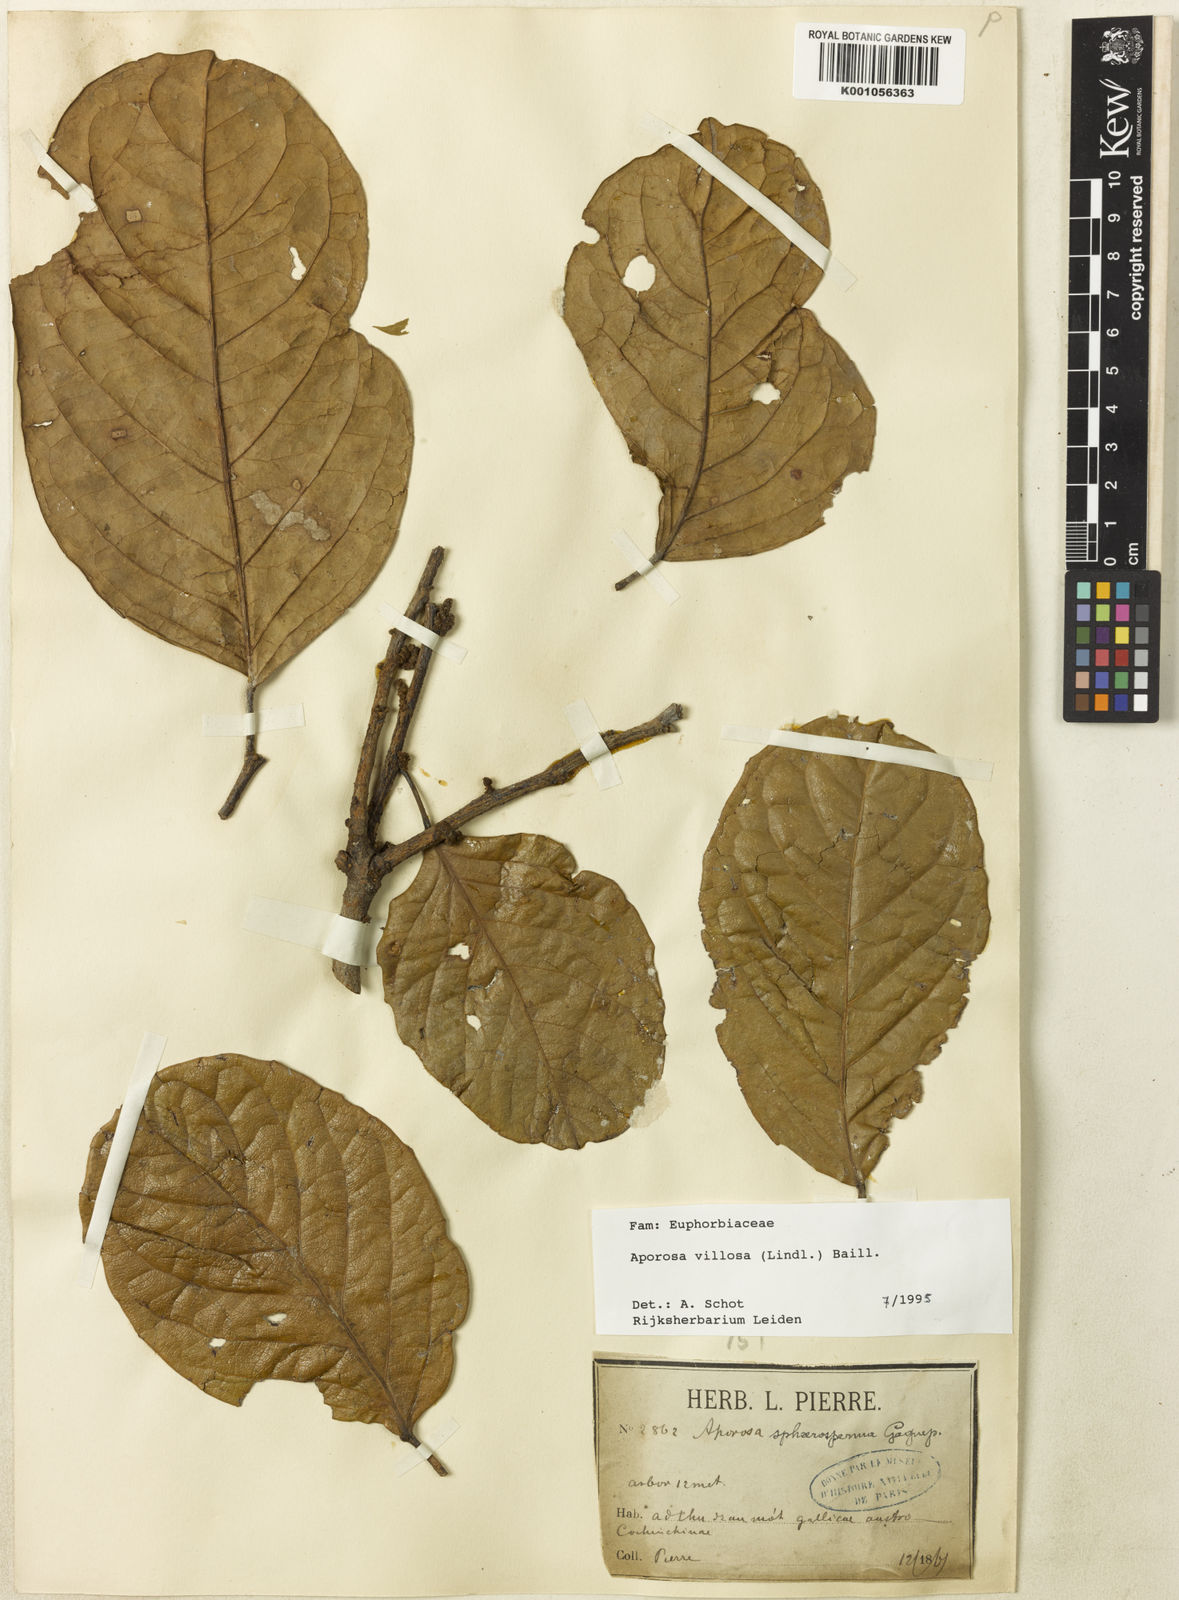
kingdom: Plantae
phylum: Tracheophyta
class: Magnoliopsida
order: Malpighiales
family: Phyllanthaceae
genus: Aporosa
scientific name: Aporosa villosa
